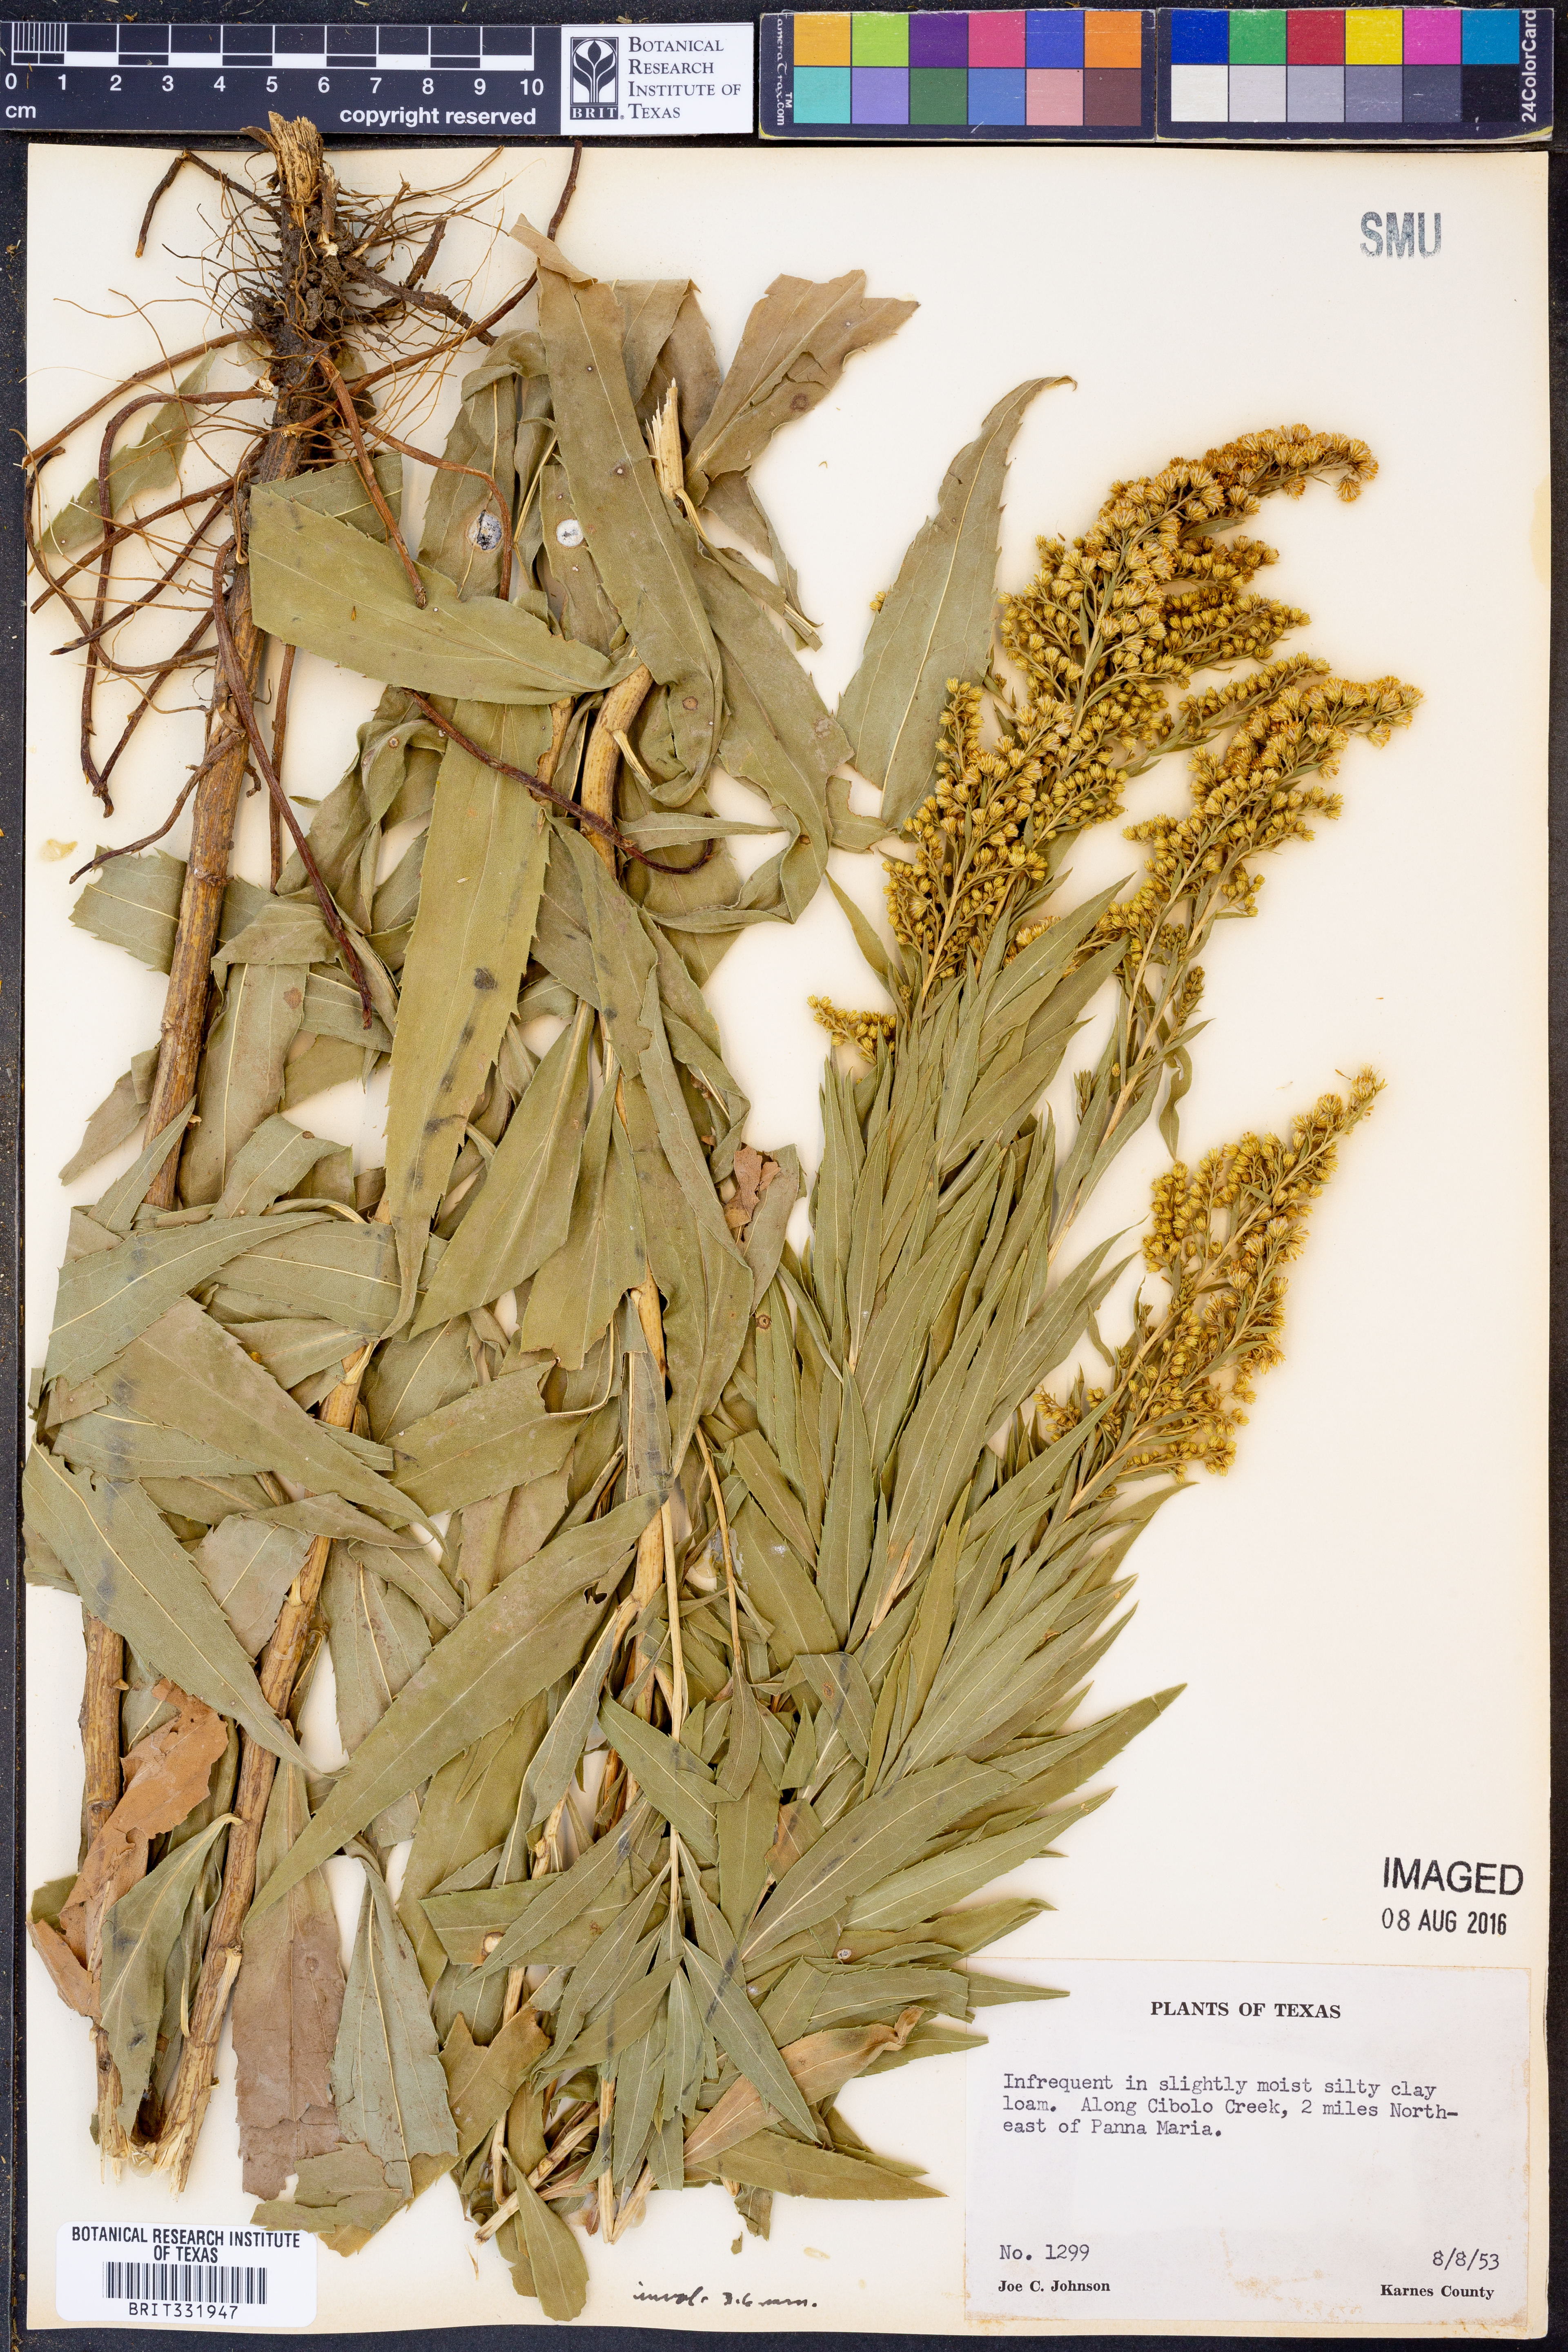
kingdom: Plantae
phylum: Tracheophyta
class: Magnoliopsida
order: Asterales
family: Asteraceae
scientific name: Asteraceae
